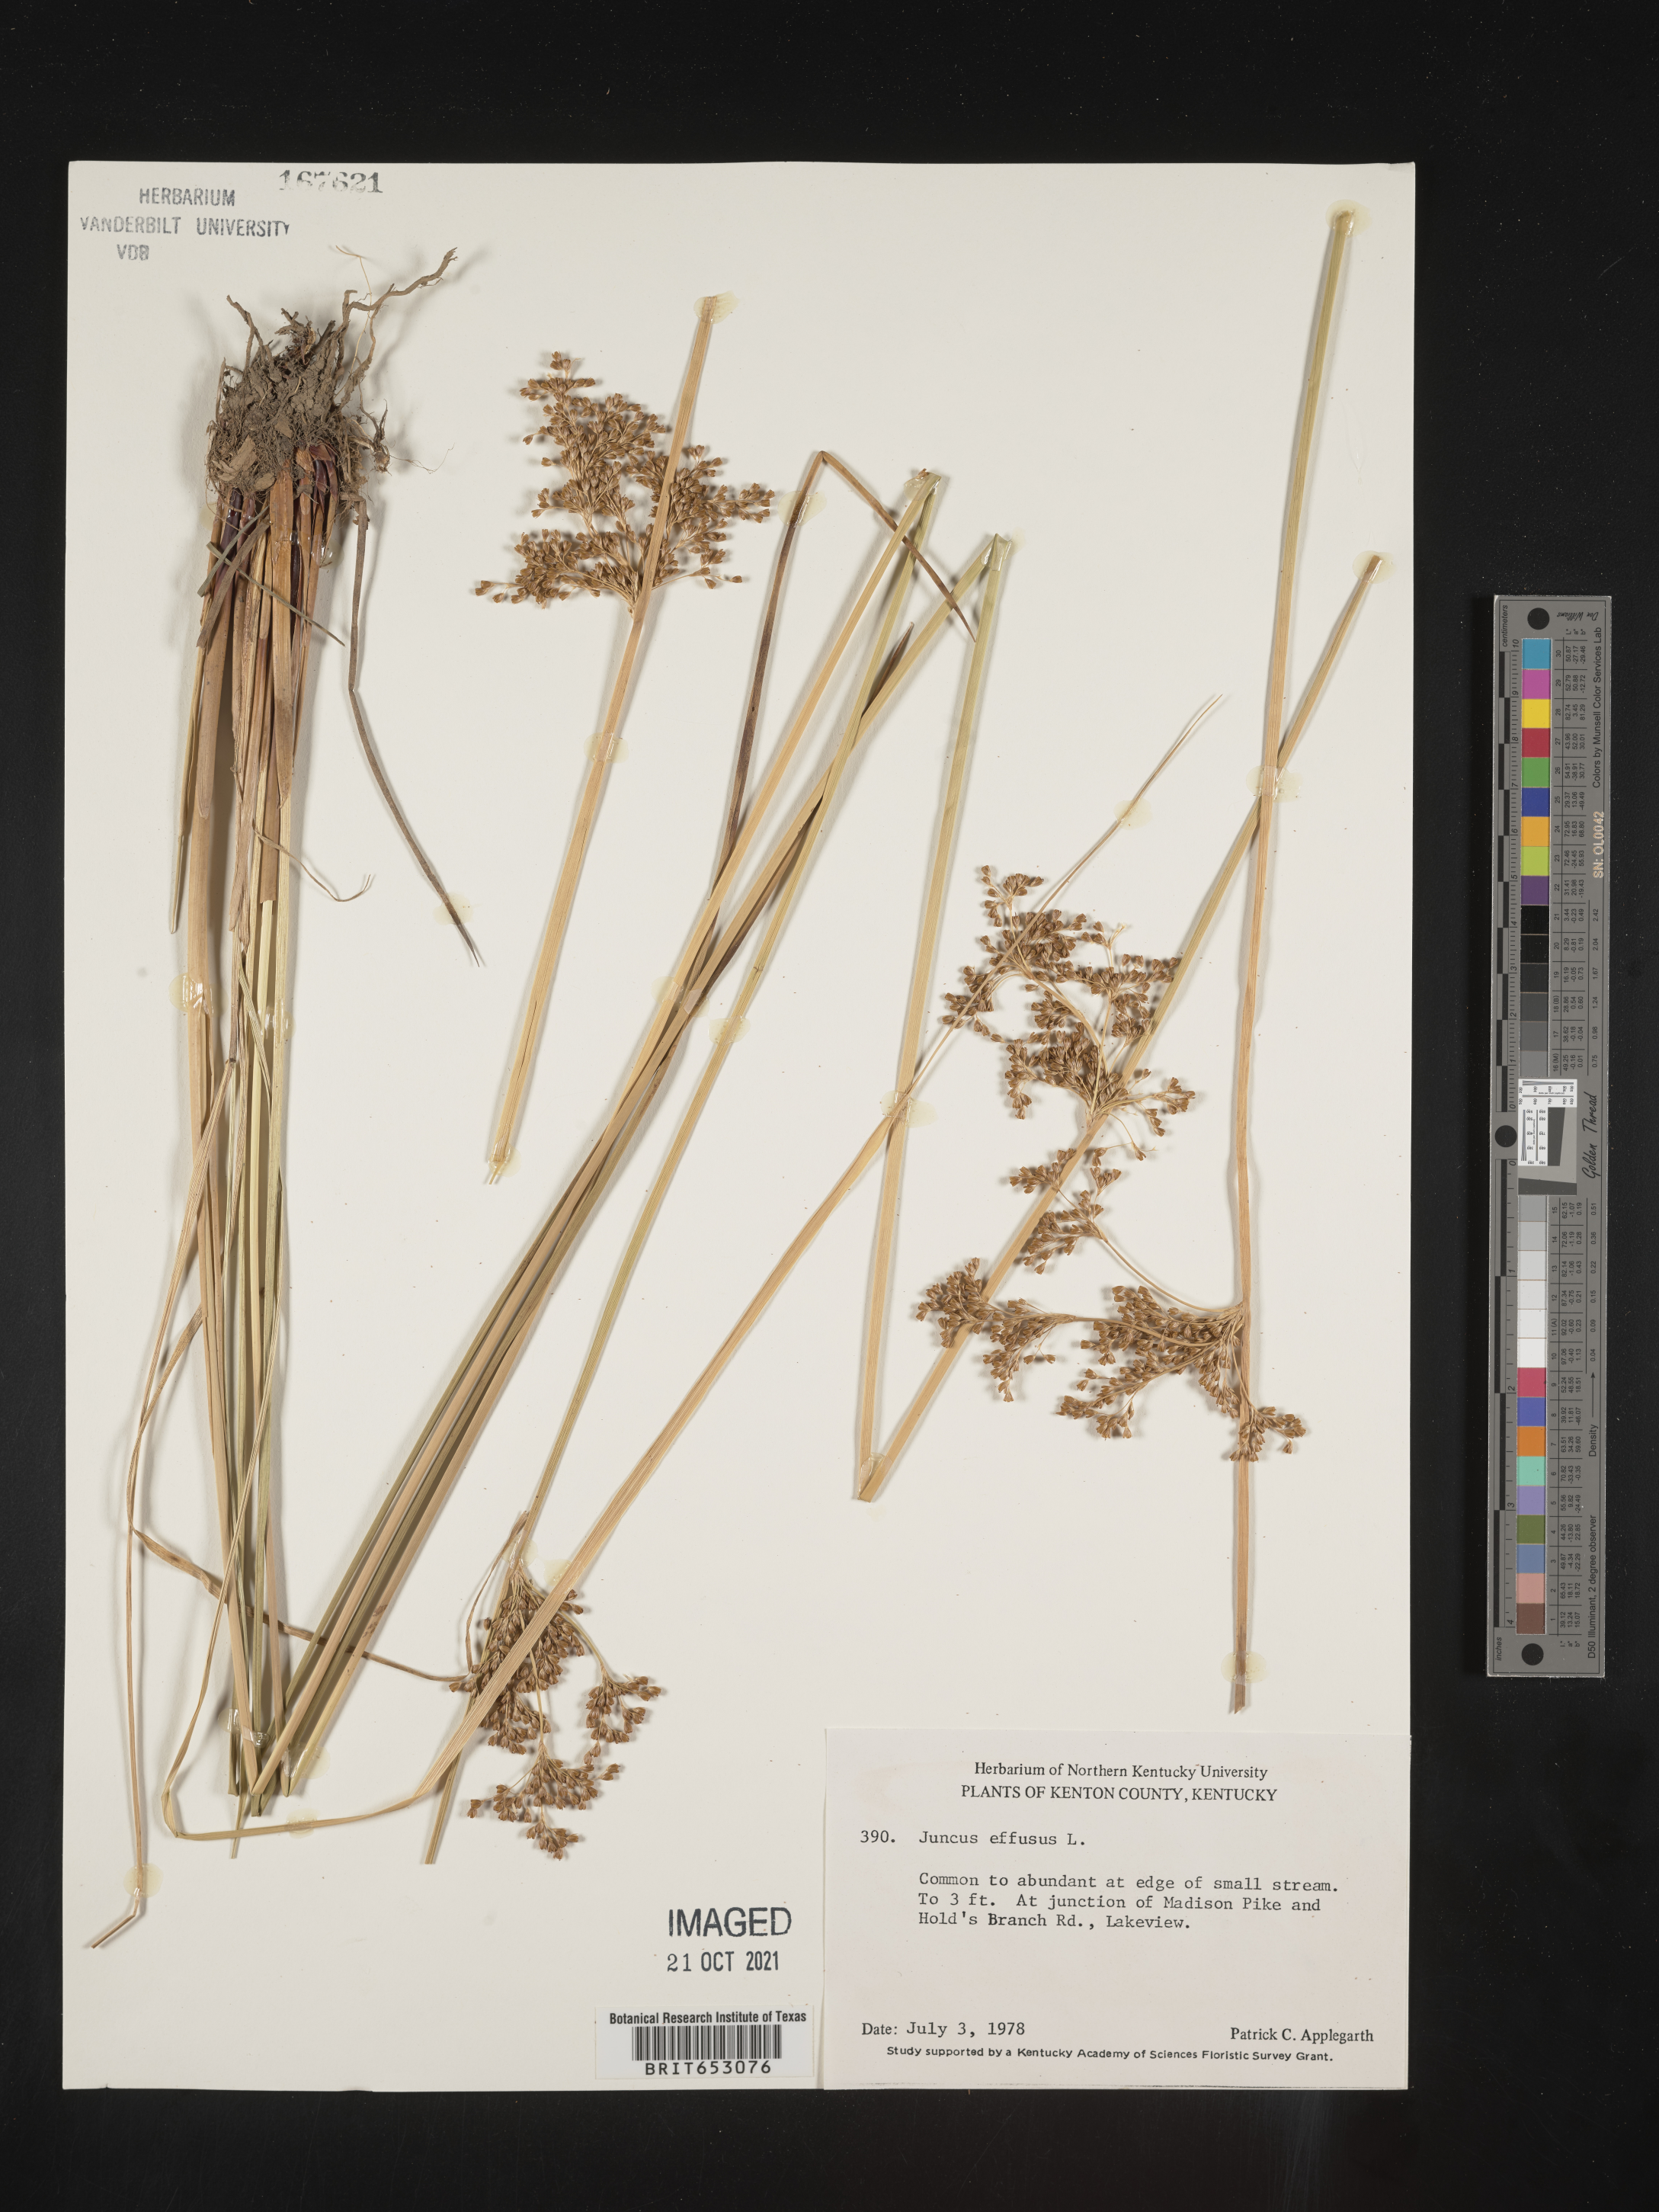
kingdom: Plantae
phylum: Tracheophyta
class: Liliopsida
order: Poales
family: Juncaceae
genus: Juncus
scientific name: Juncus effusus
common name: Soft rush
